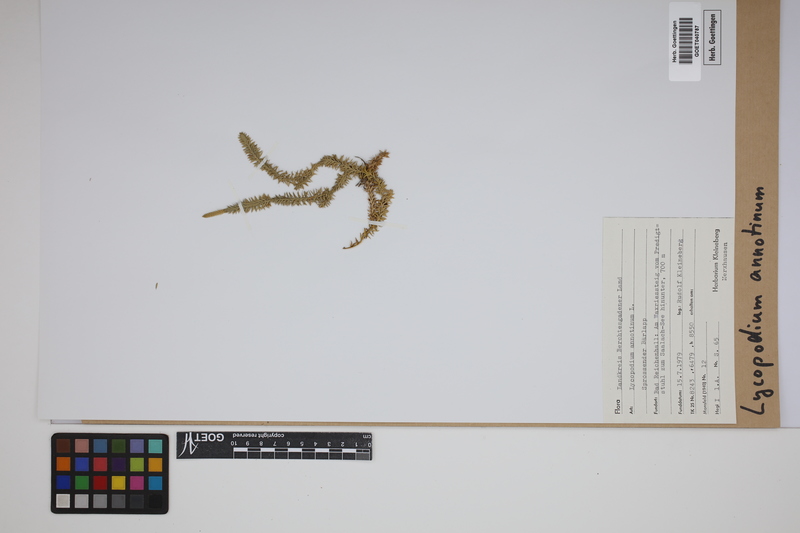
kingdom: Plantae
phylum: Tracheophyta
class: Lycopodiopsida
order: Lycopodiales
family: Lycopodiaceae
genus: Spinulum
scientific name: Spinulum annotinum
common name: Interrupted club-moss
